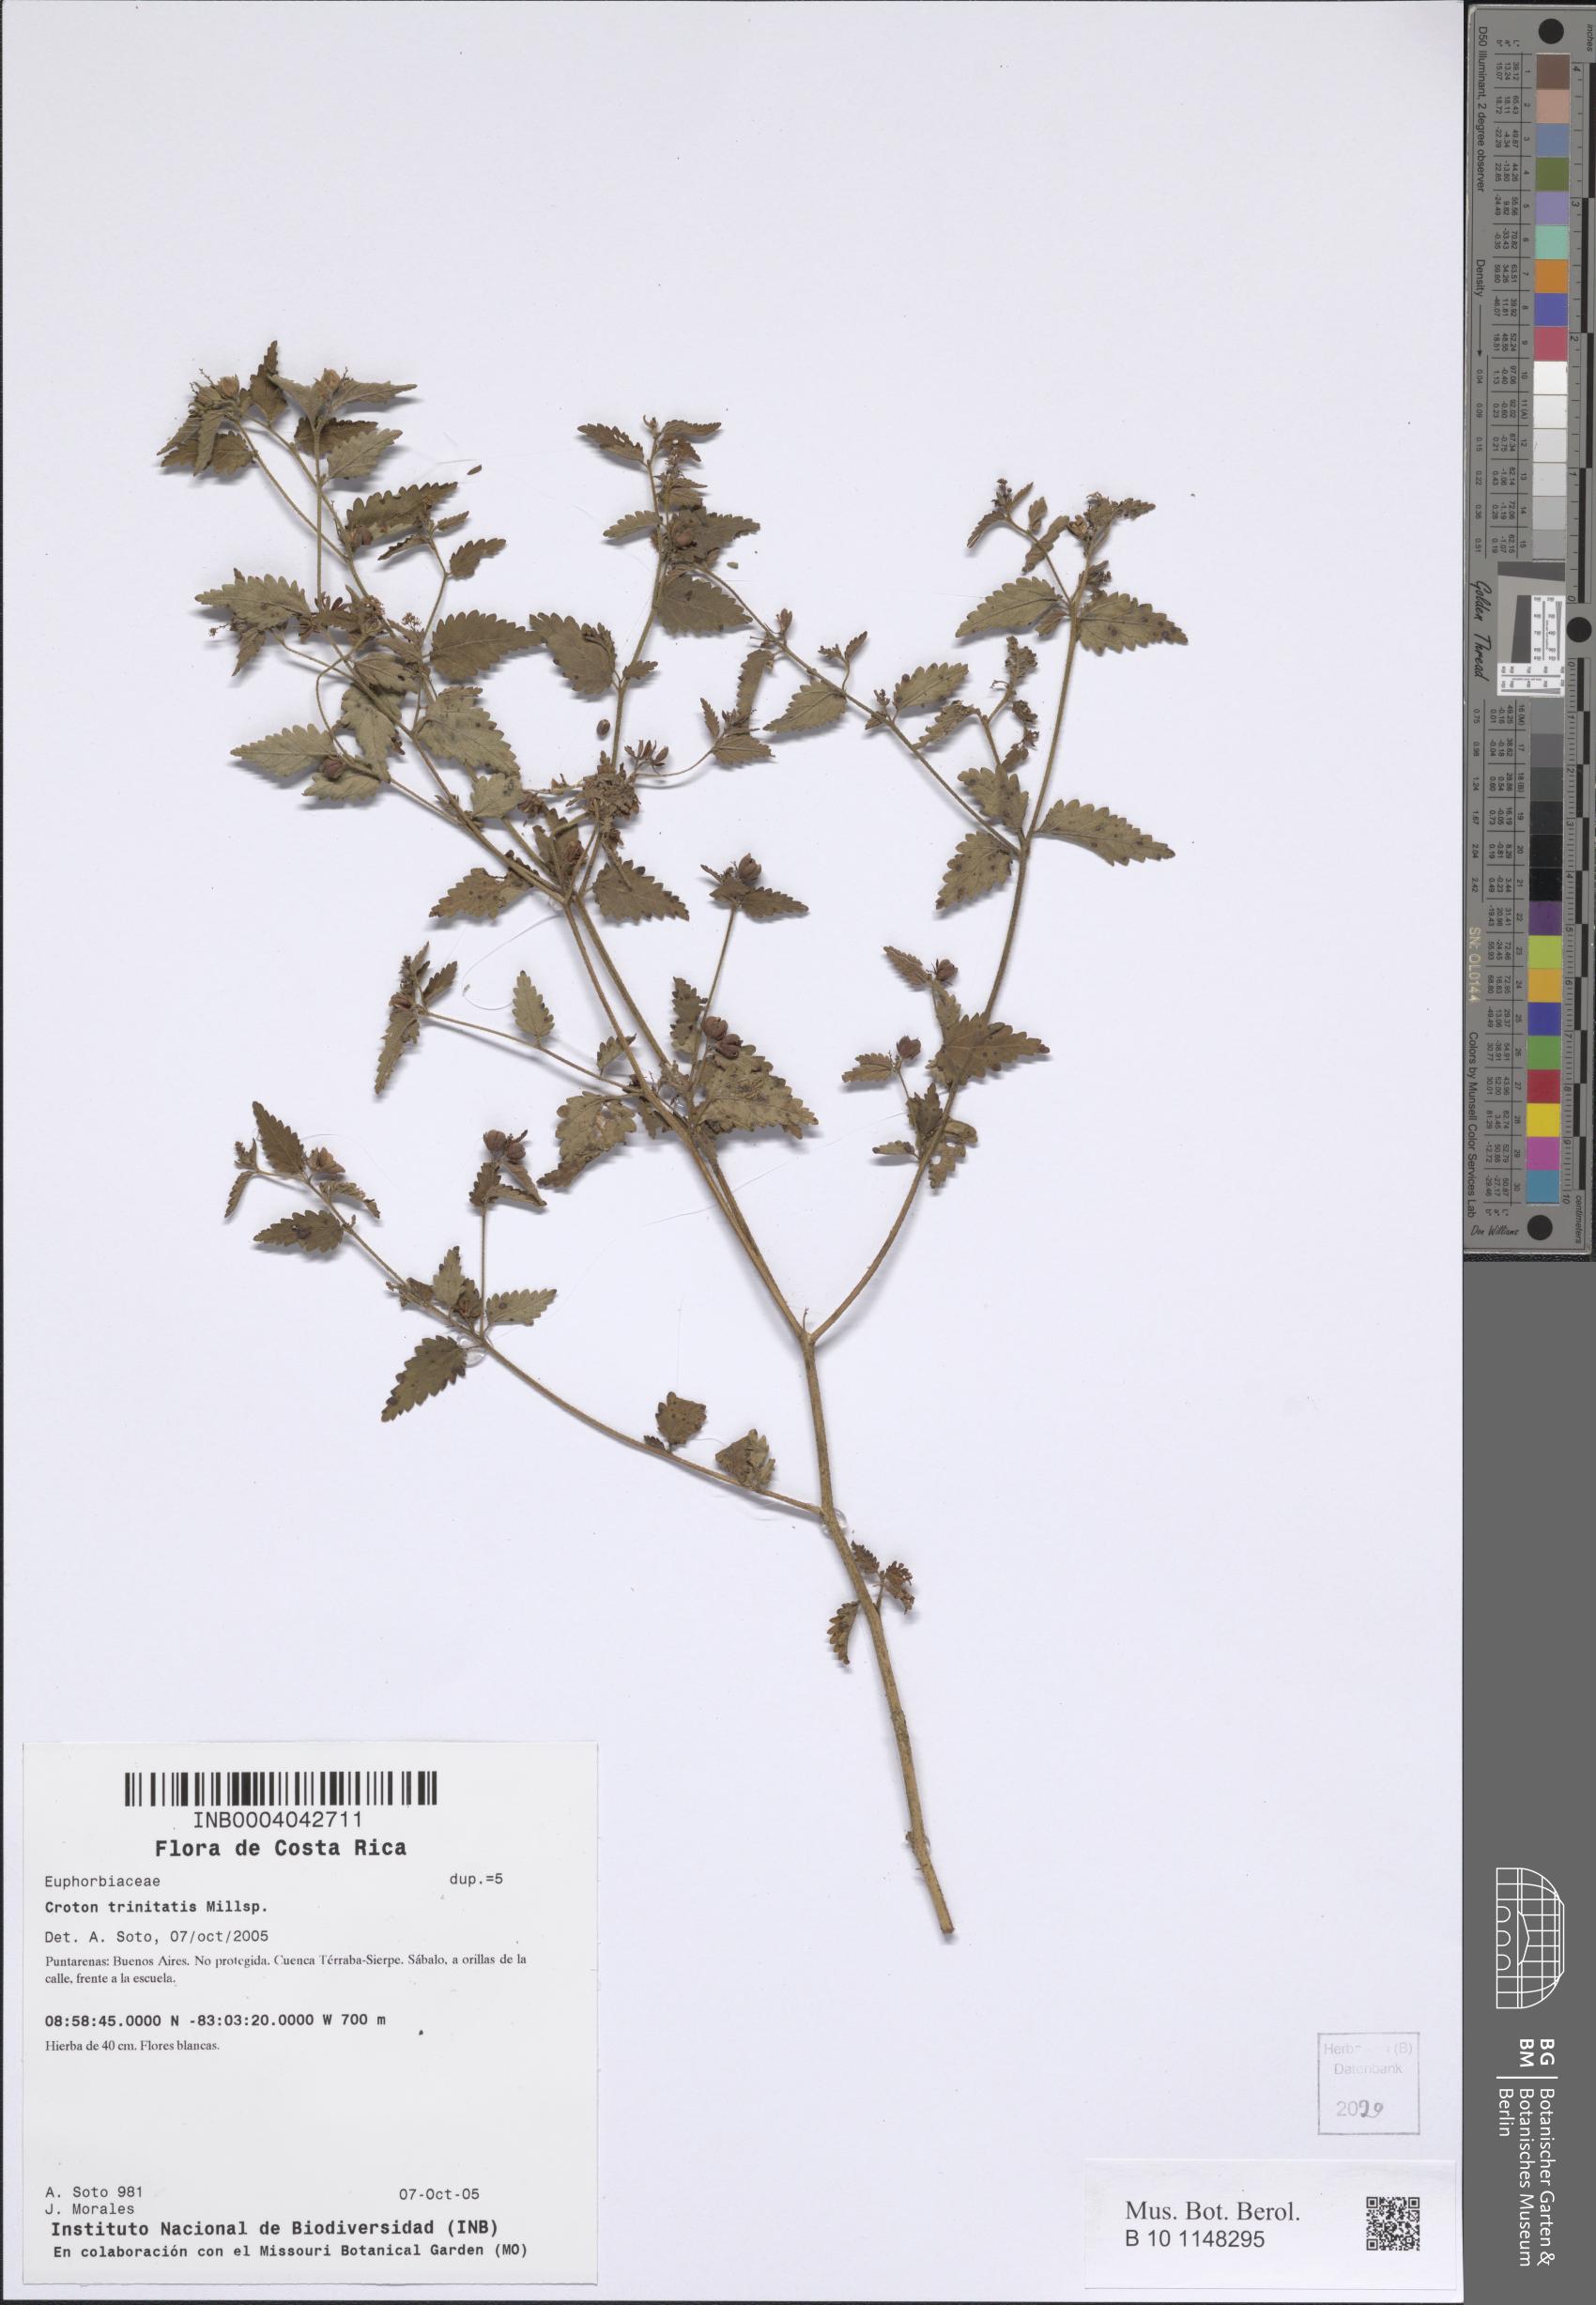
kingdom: Plantae
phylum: Tracheophyta
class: Magnoliopsida
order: Malpighiales
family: Euphorbiaceae
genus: Croton
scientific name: Croton trinitatis
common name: Roadside croton
